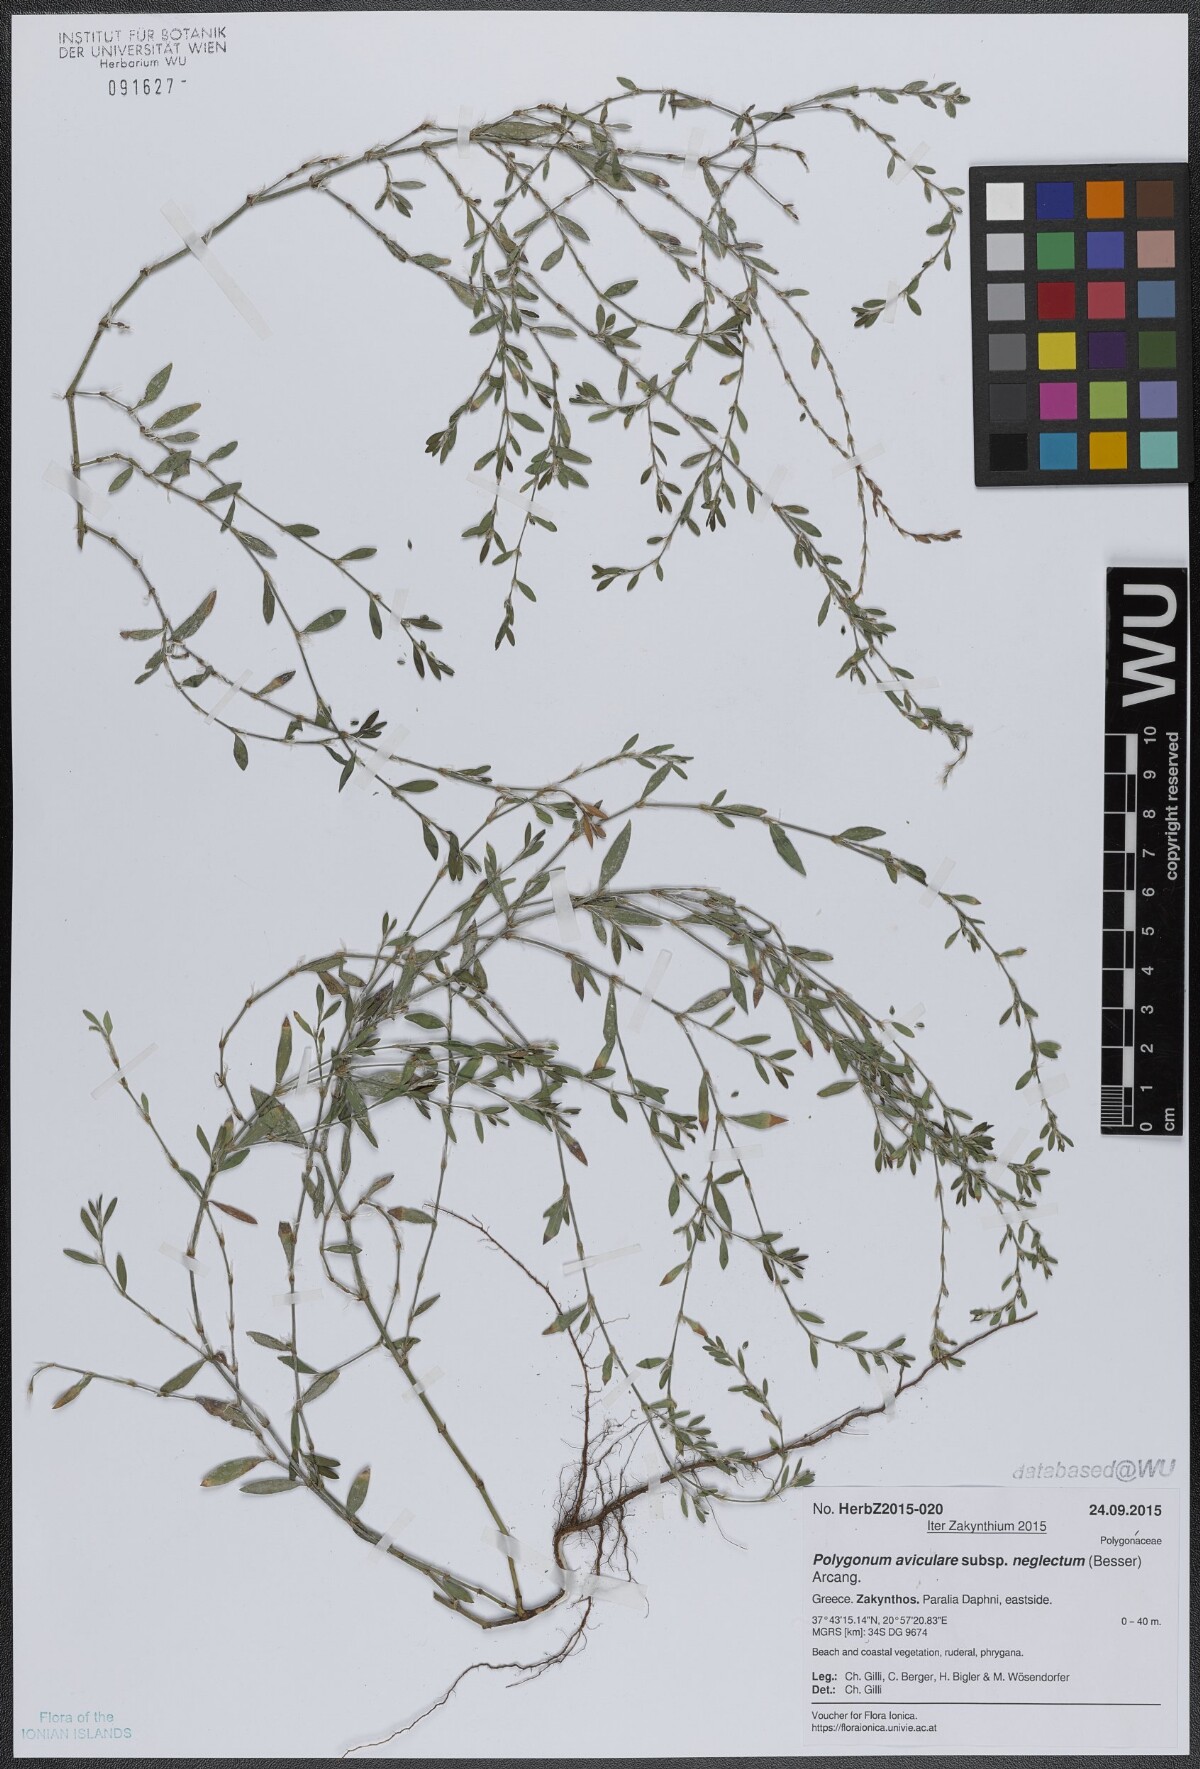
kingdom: Plantae
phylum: Tracheophyta
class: Magnoliopsida
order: Caryophyllales
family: Polygonaceae
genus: Polygonum
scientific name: Polygonum aviculare
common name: Prostrate knotweed
